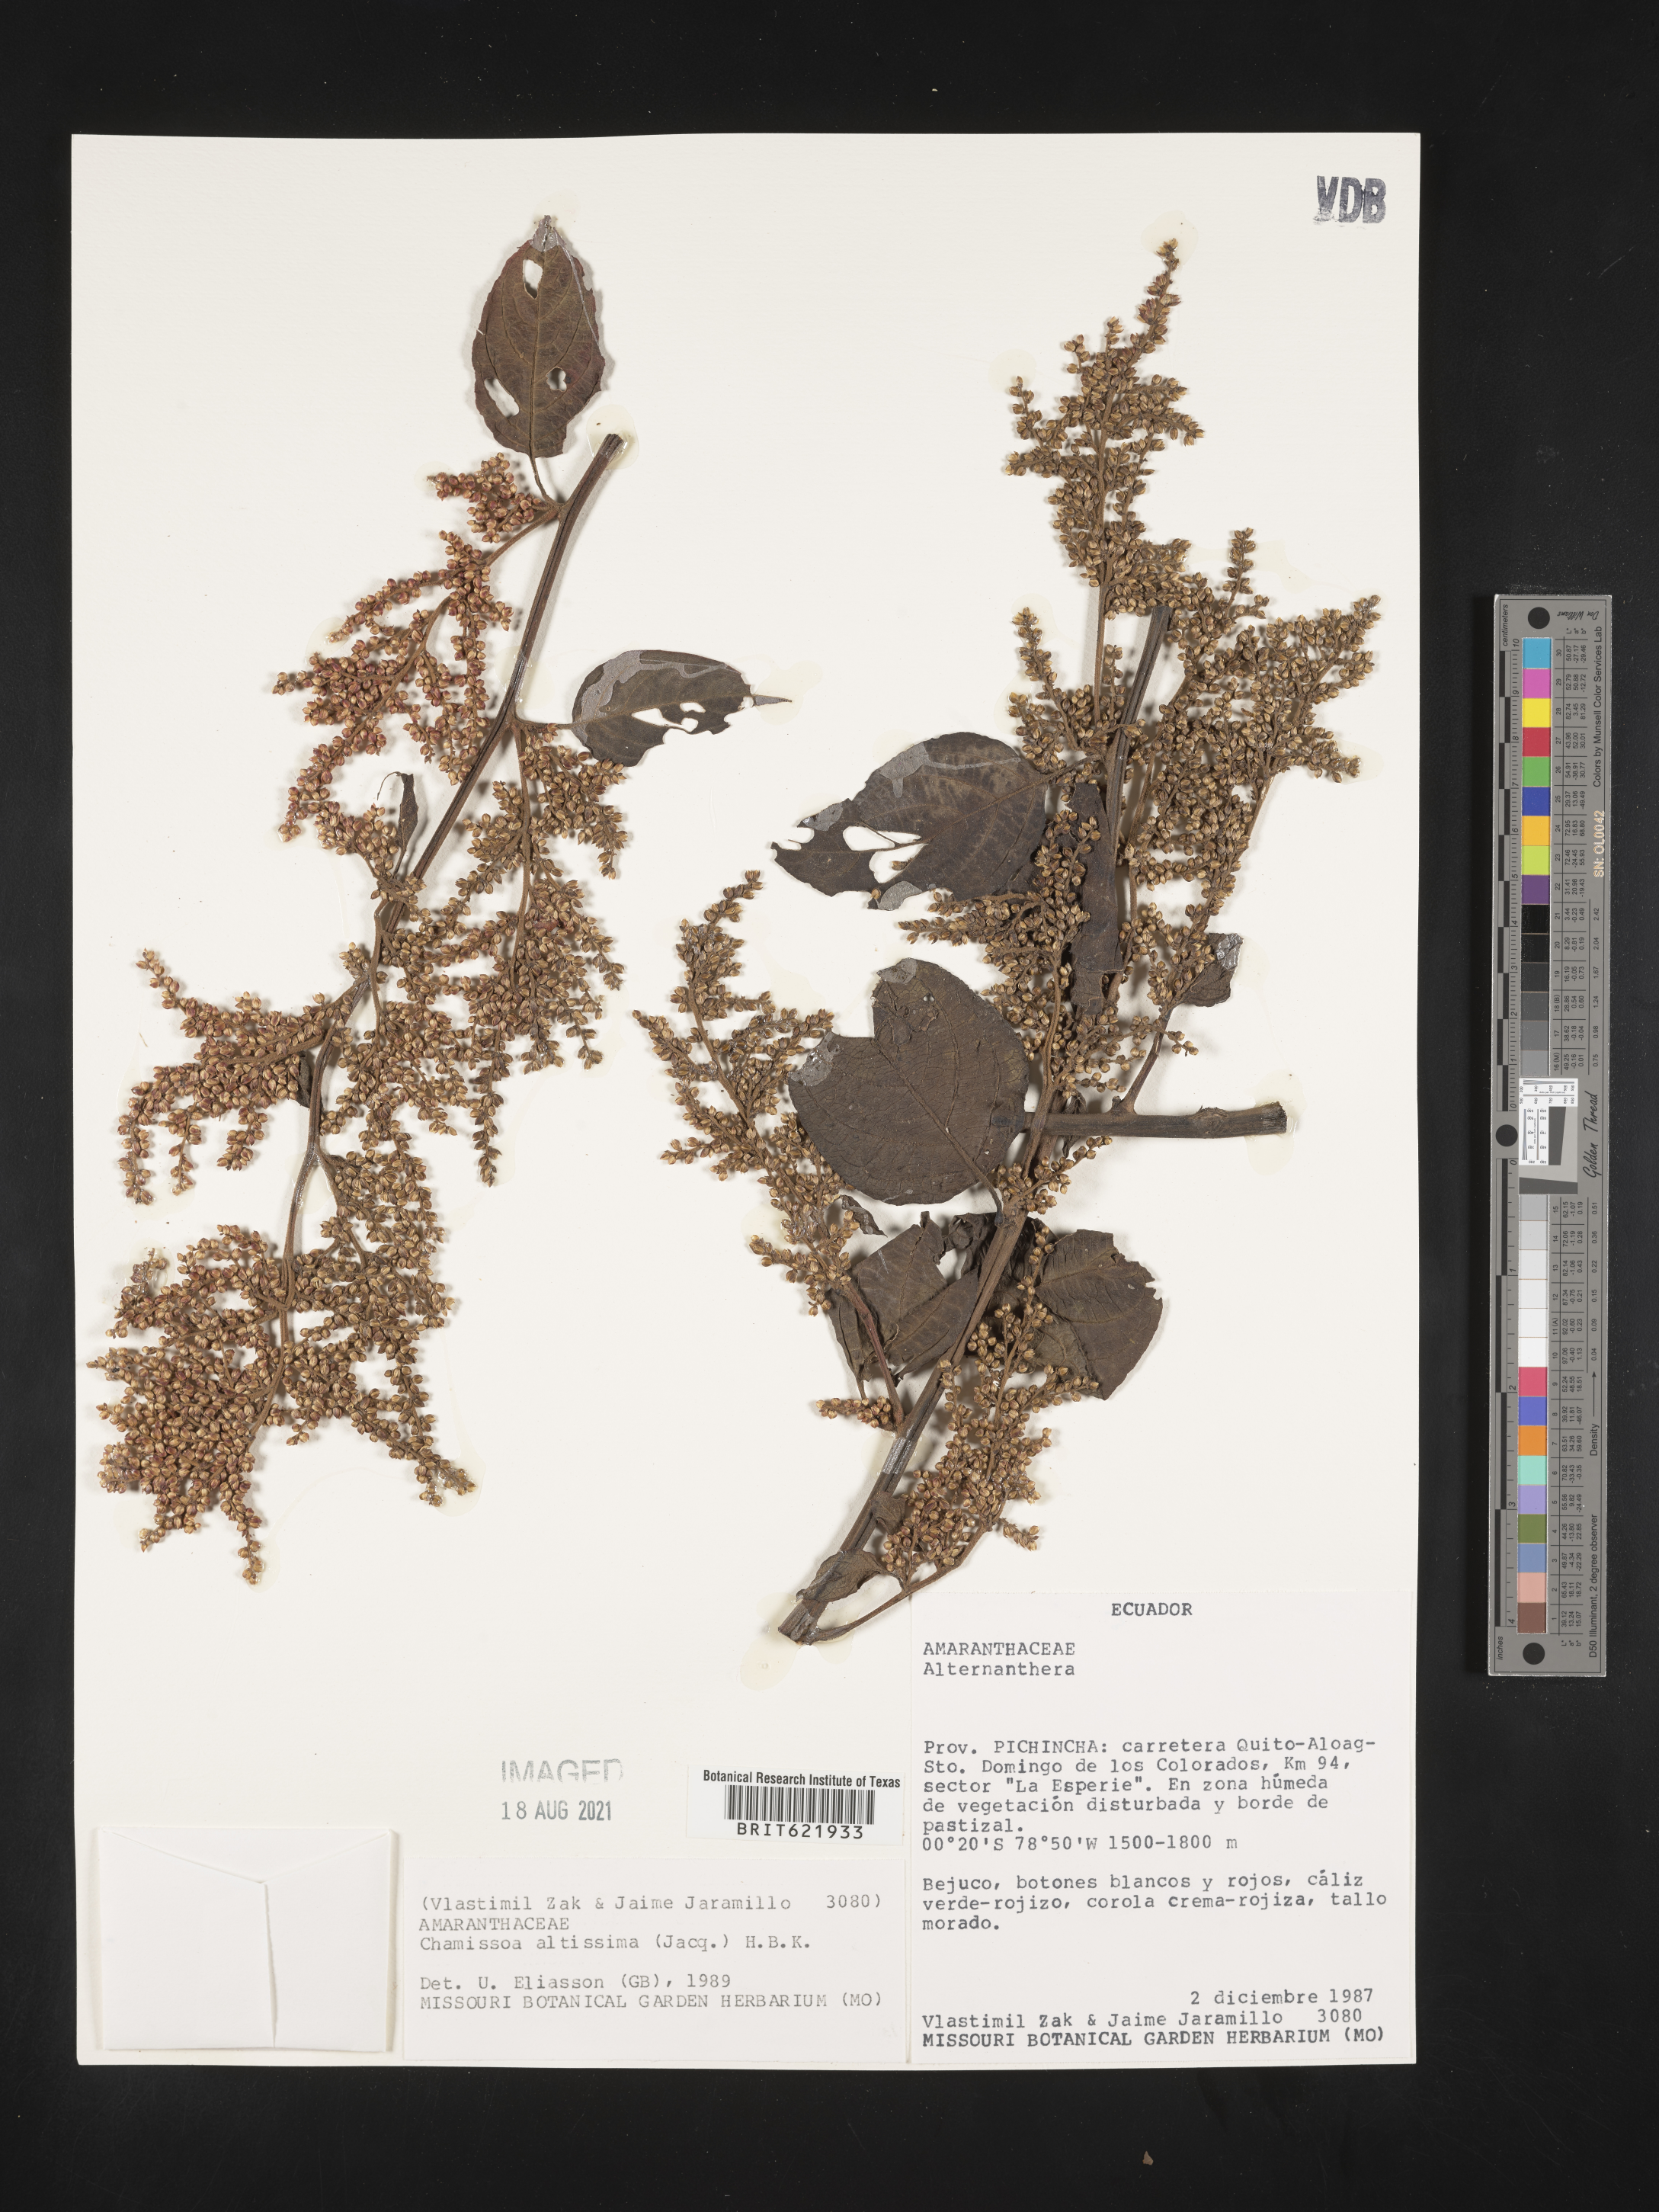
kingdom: Plantae
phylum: Tracheophyta
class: Magnoliopsida
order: Caryophyllales
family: Amaranthaceae
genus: Chamissoa
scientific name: Chamissoa altissima
